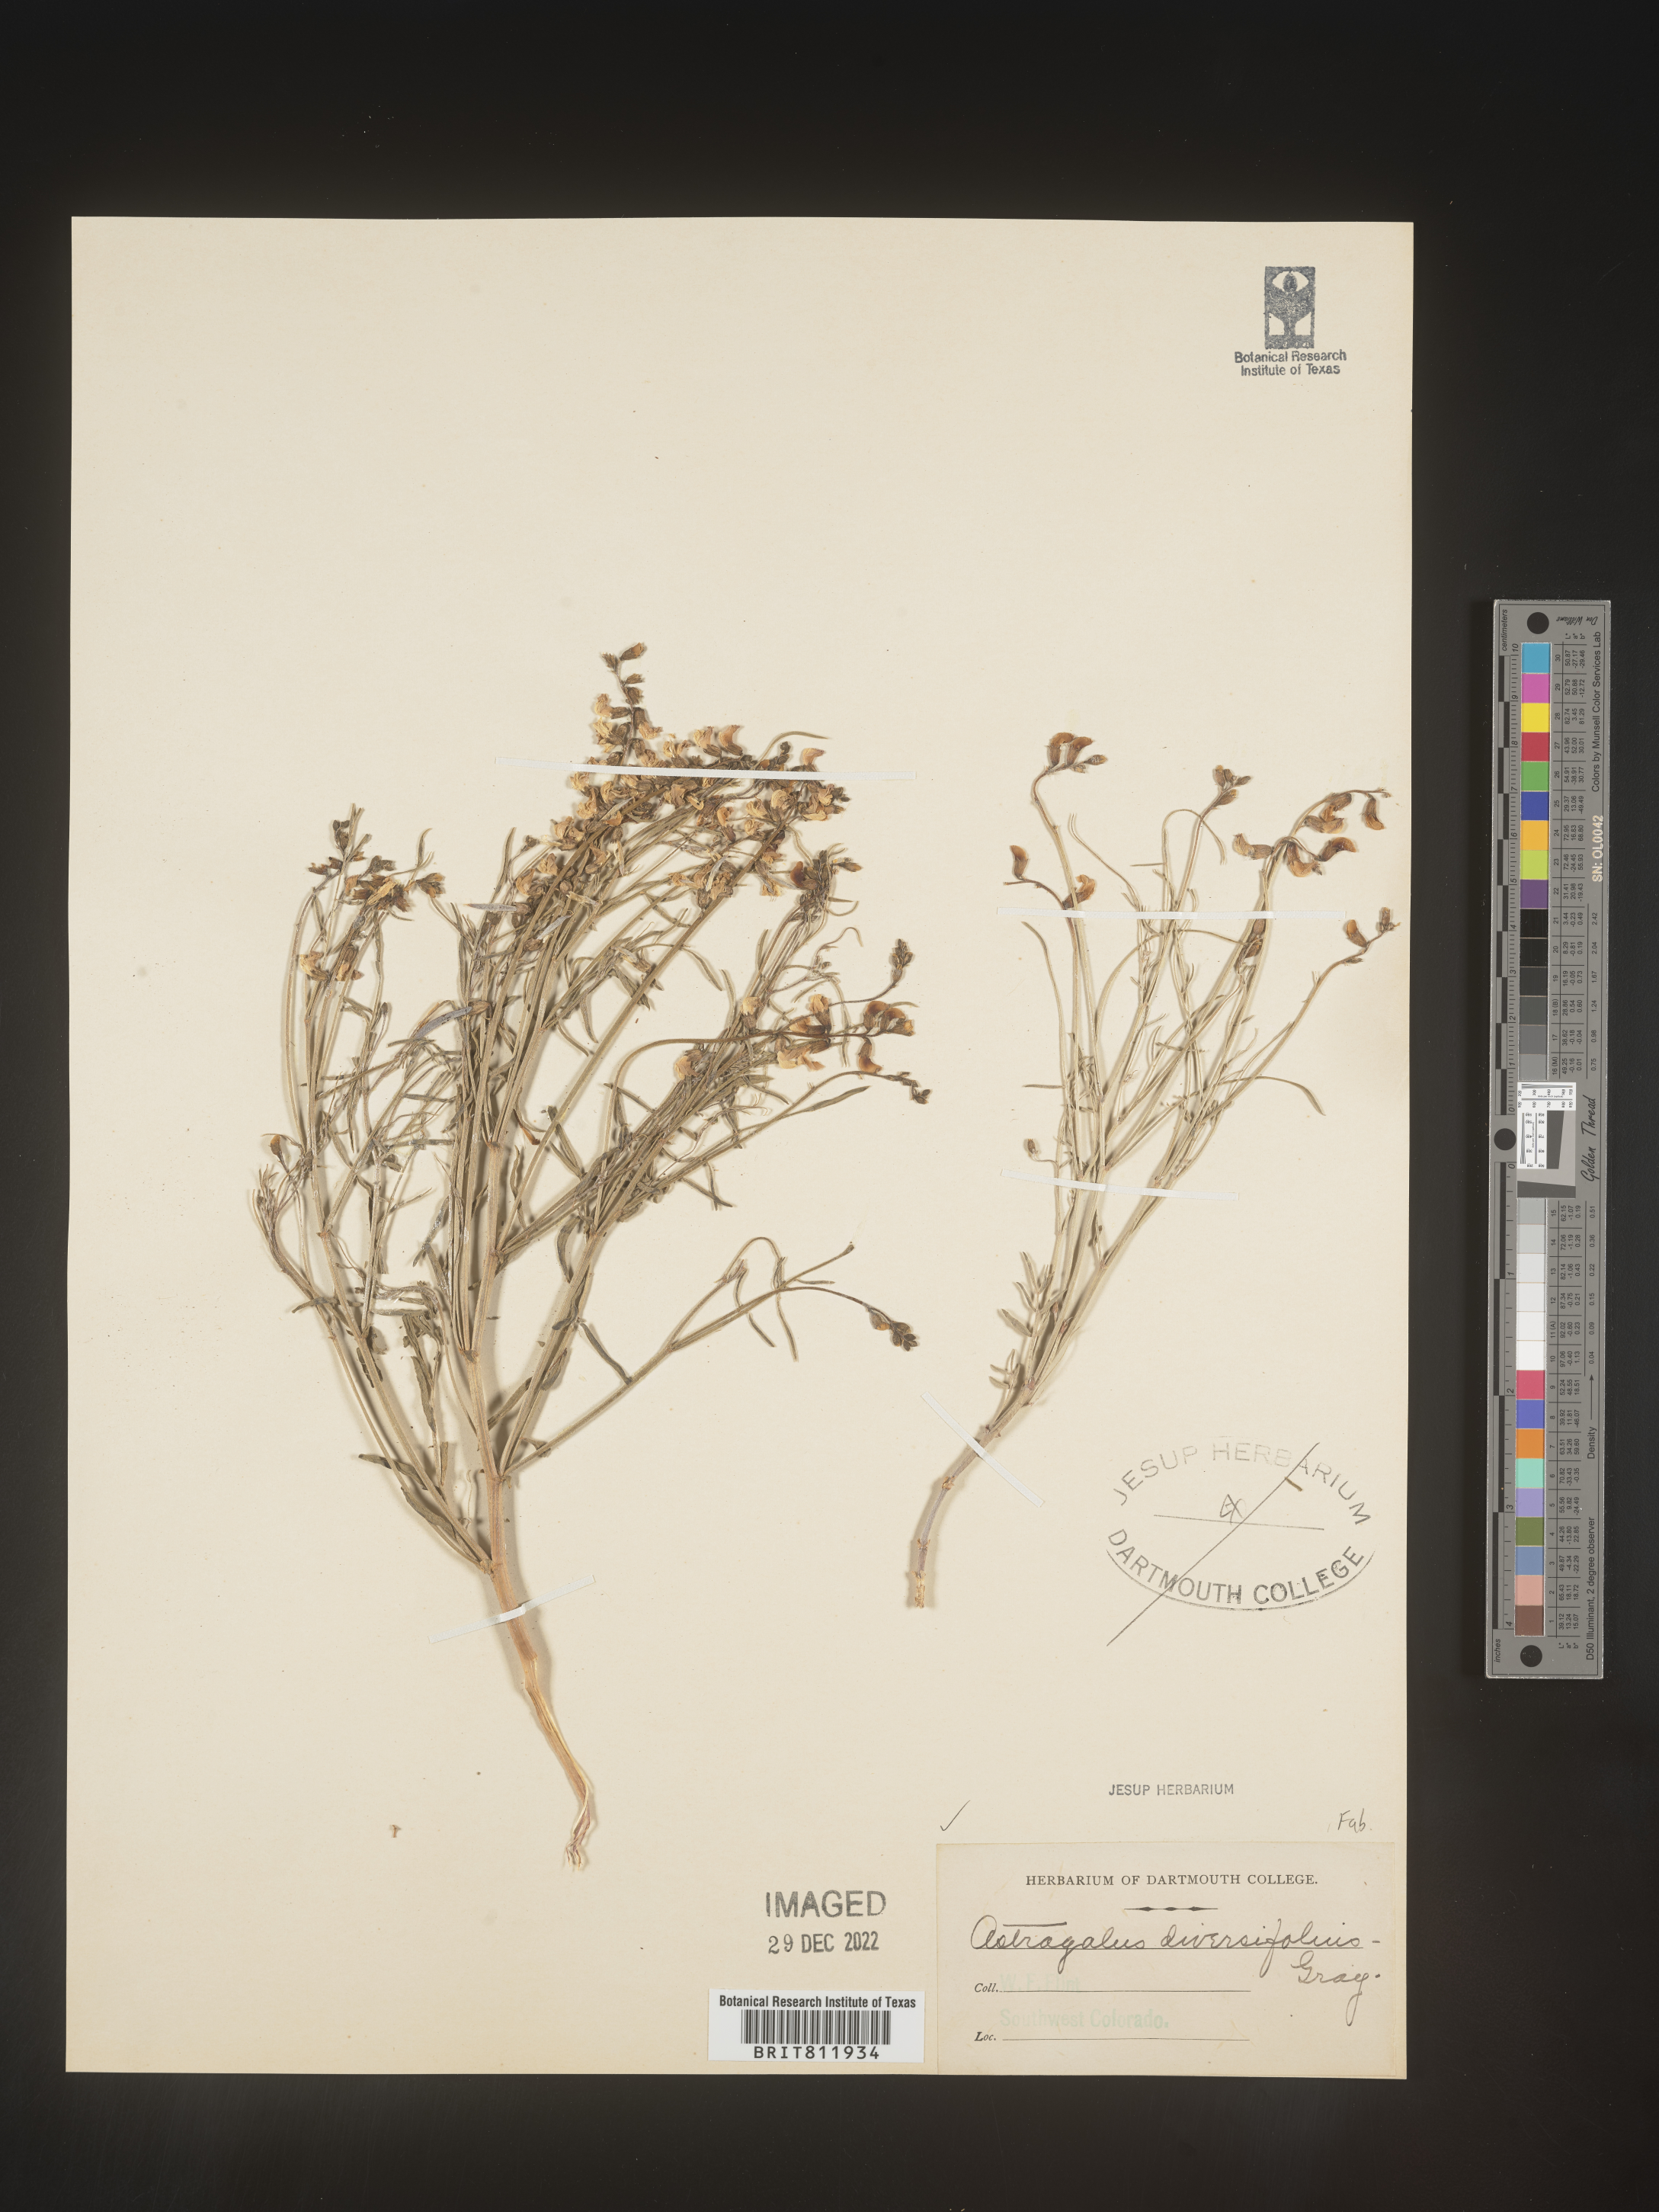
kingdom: Plantae
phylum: Tracheophyta
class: Magnoliopsida
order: Fabales
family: Fabaceae
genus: Astragalus
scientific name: Astragalus diversifolius
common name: Meadow milk-vetch
